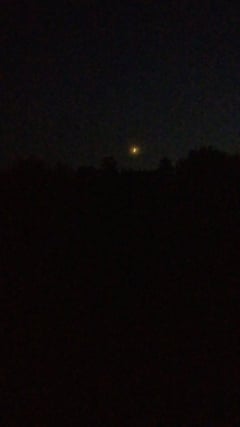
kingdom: Animalia
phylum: Arthropoda
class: Insecta
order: Orthoptera
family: Tettigoniidae
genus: Tettigonia
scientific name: Tettigonia viridissima
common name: Great green bush-cricket
